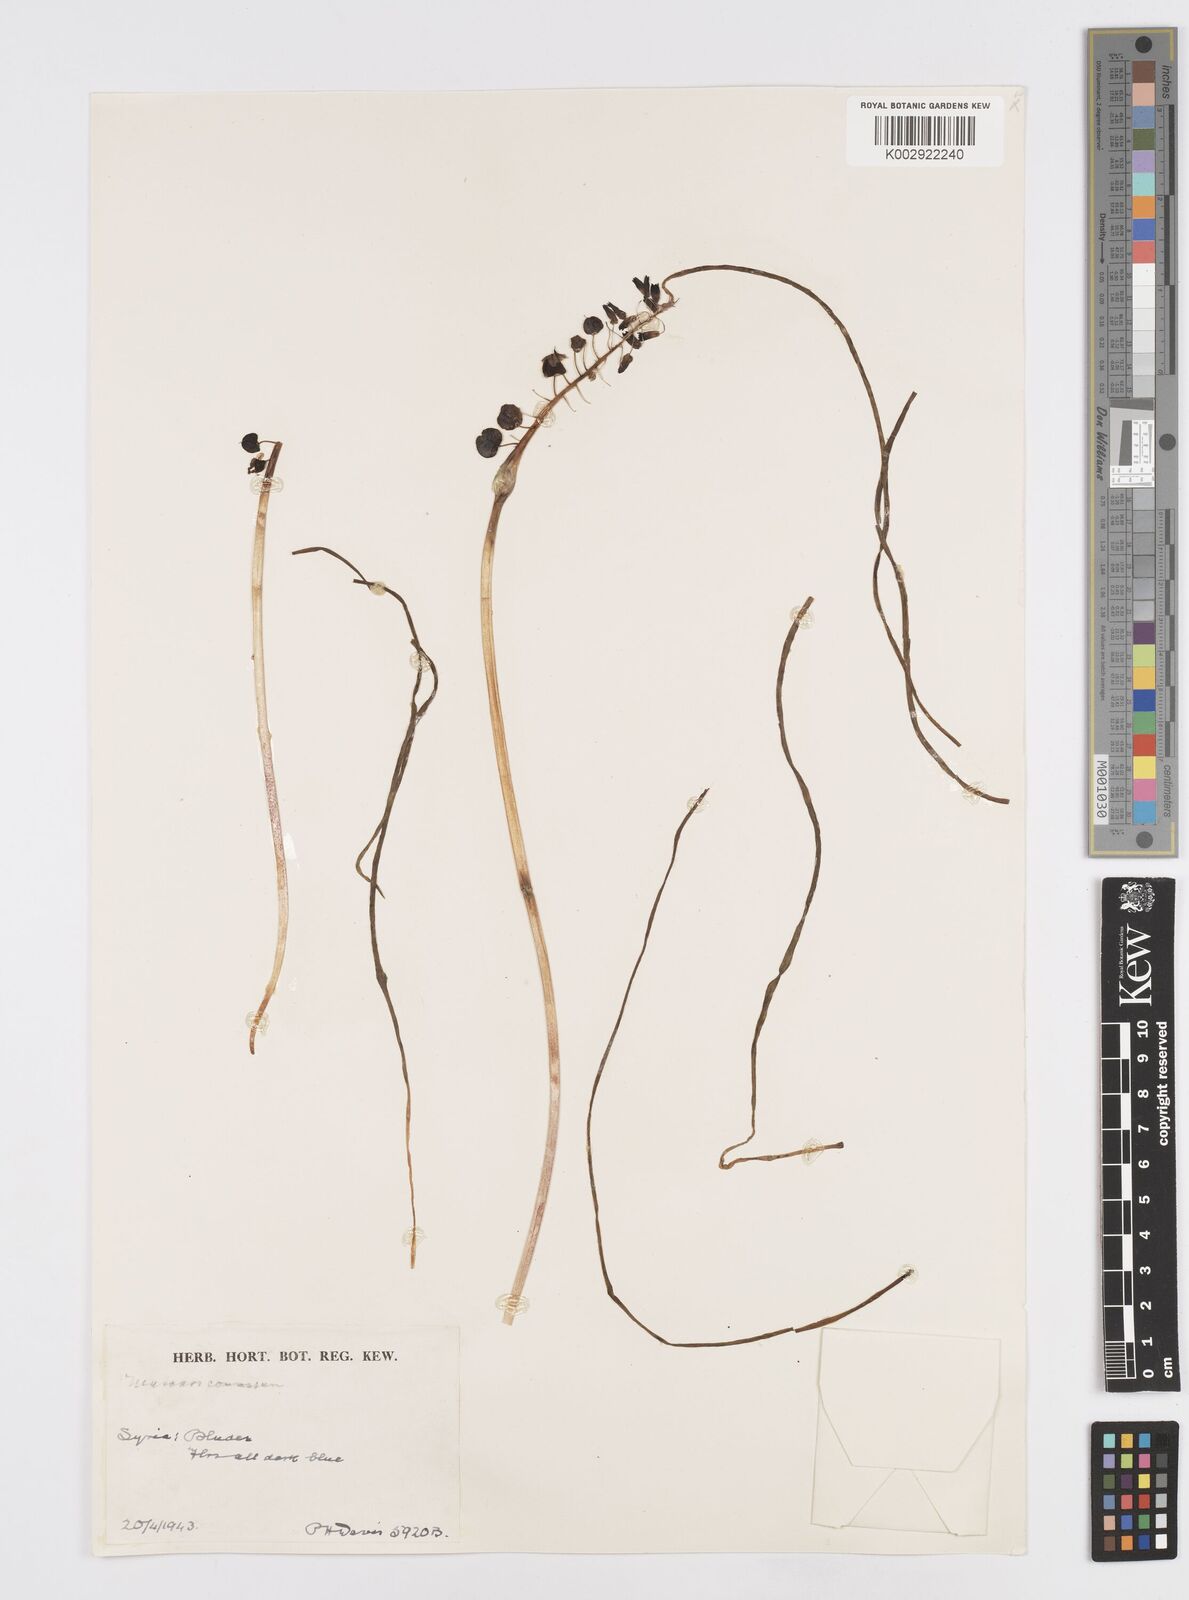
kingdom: Plantae
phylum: Tracheophyta
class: Liliopsida
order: Asparagales
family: Asparagaceae
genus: Muscari
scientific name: Muscari comosum
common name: Tassel hyacinth
